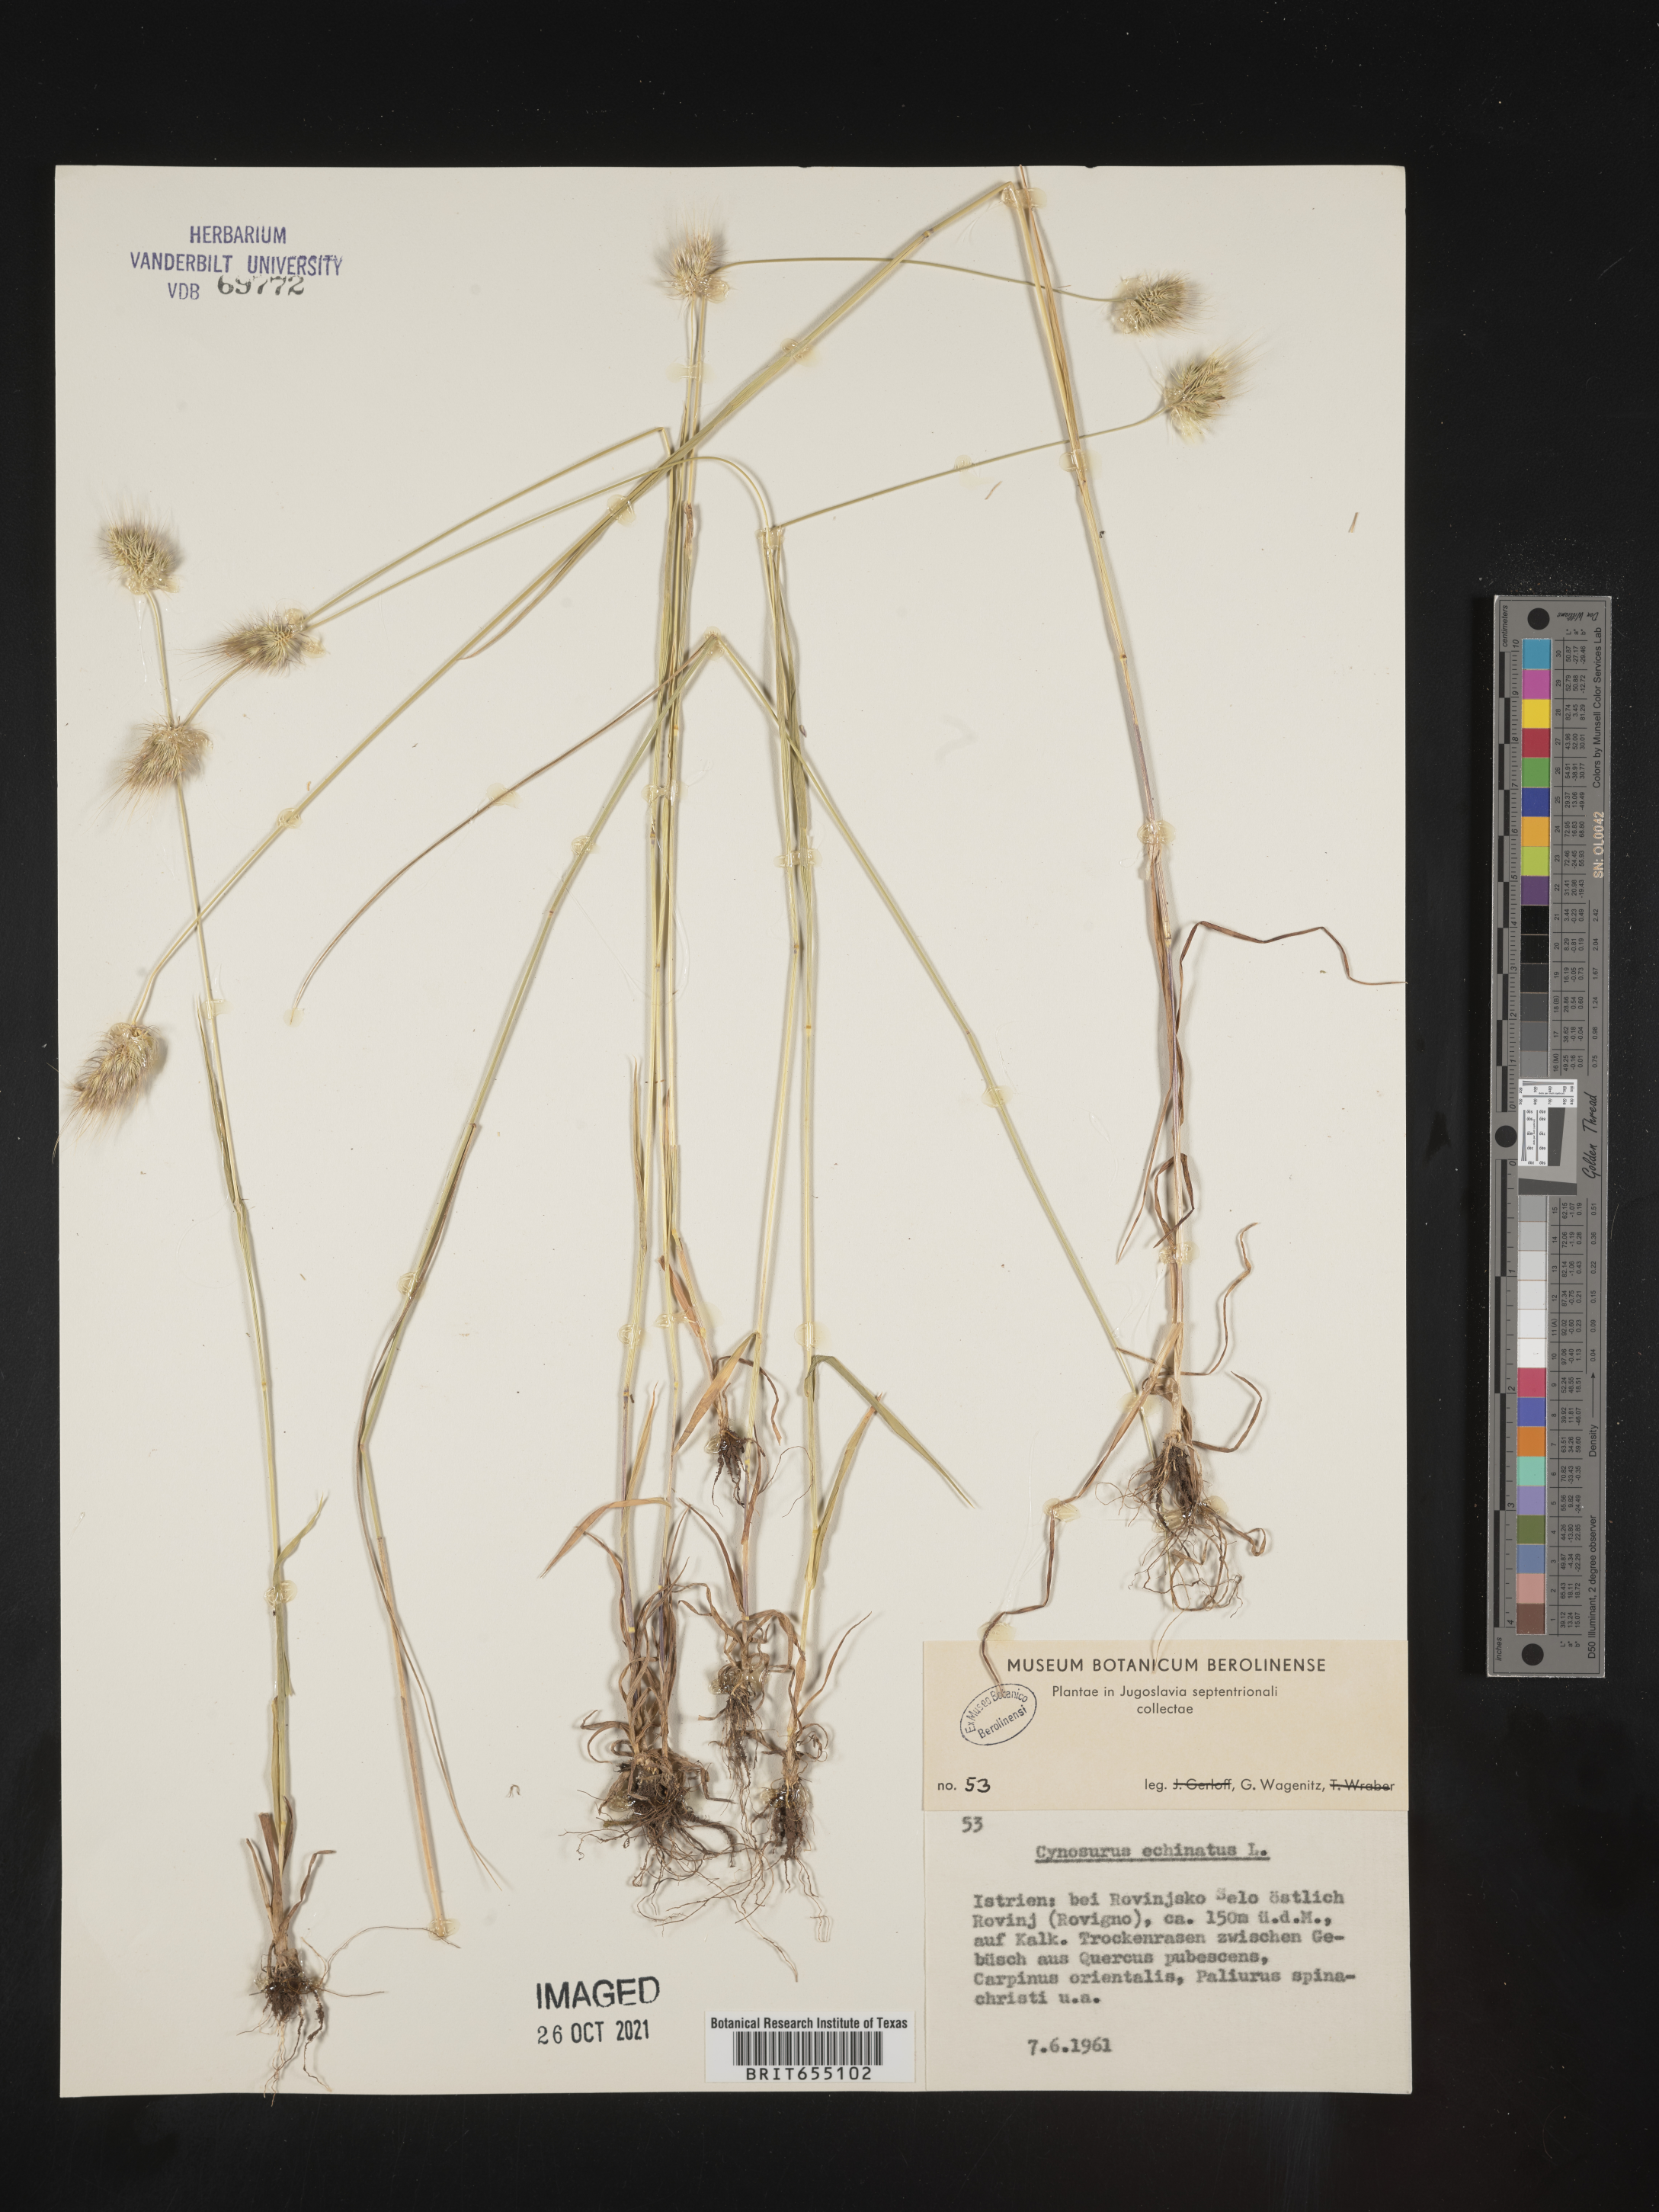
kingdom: Plantae
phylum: Tracheophyta
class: Liliopsida
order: Poales
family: Poaceae
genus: Cynosurus
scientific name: Cynosurus
